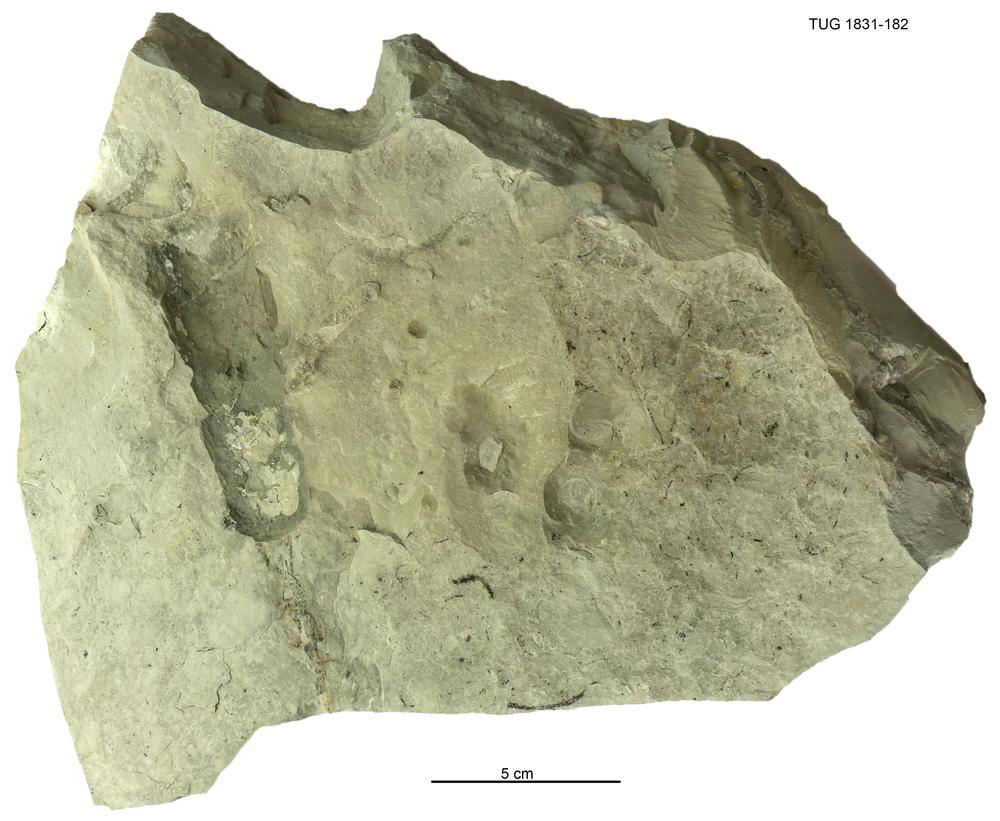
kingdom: Animalia
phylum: Mollusca
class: Cephalopoda
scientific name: Cephalopoda
